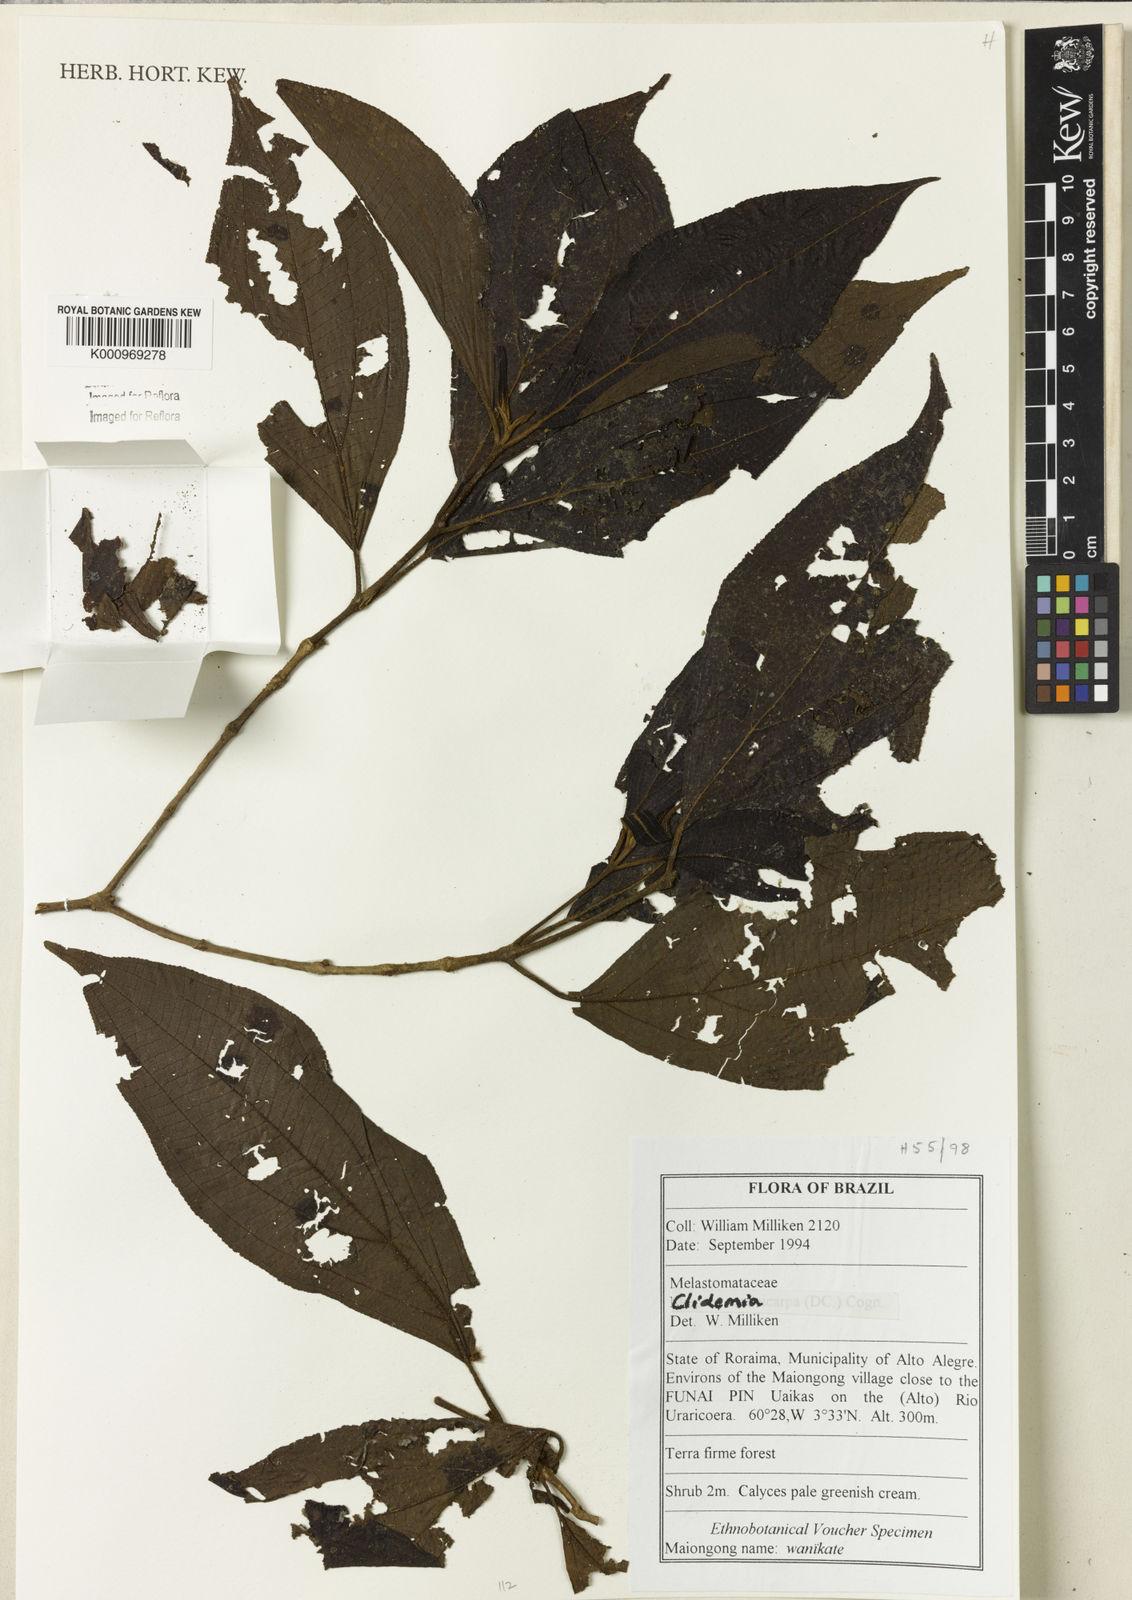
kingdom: Plantae
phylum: Tracheophyta
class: Magnoliopsida
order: Myrtales
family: Melastomataceae
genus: Miconia
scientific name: Miconia
